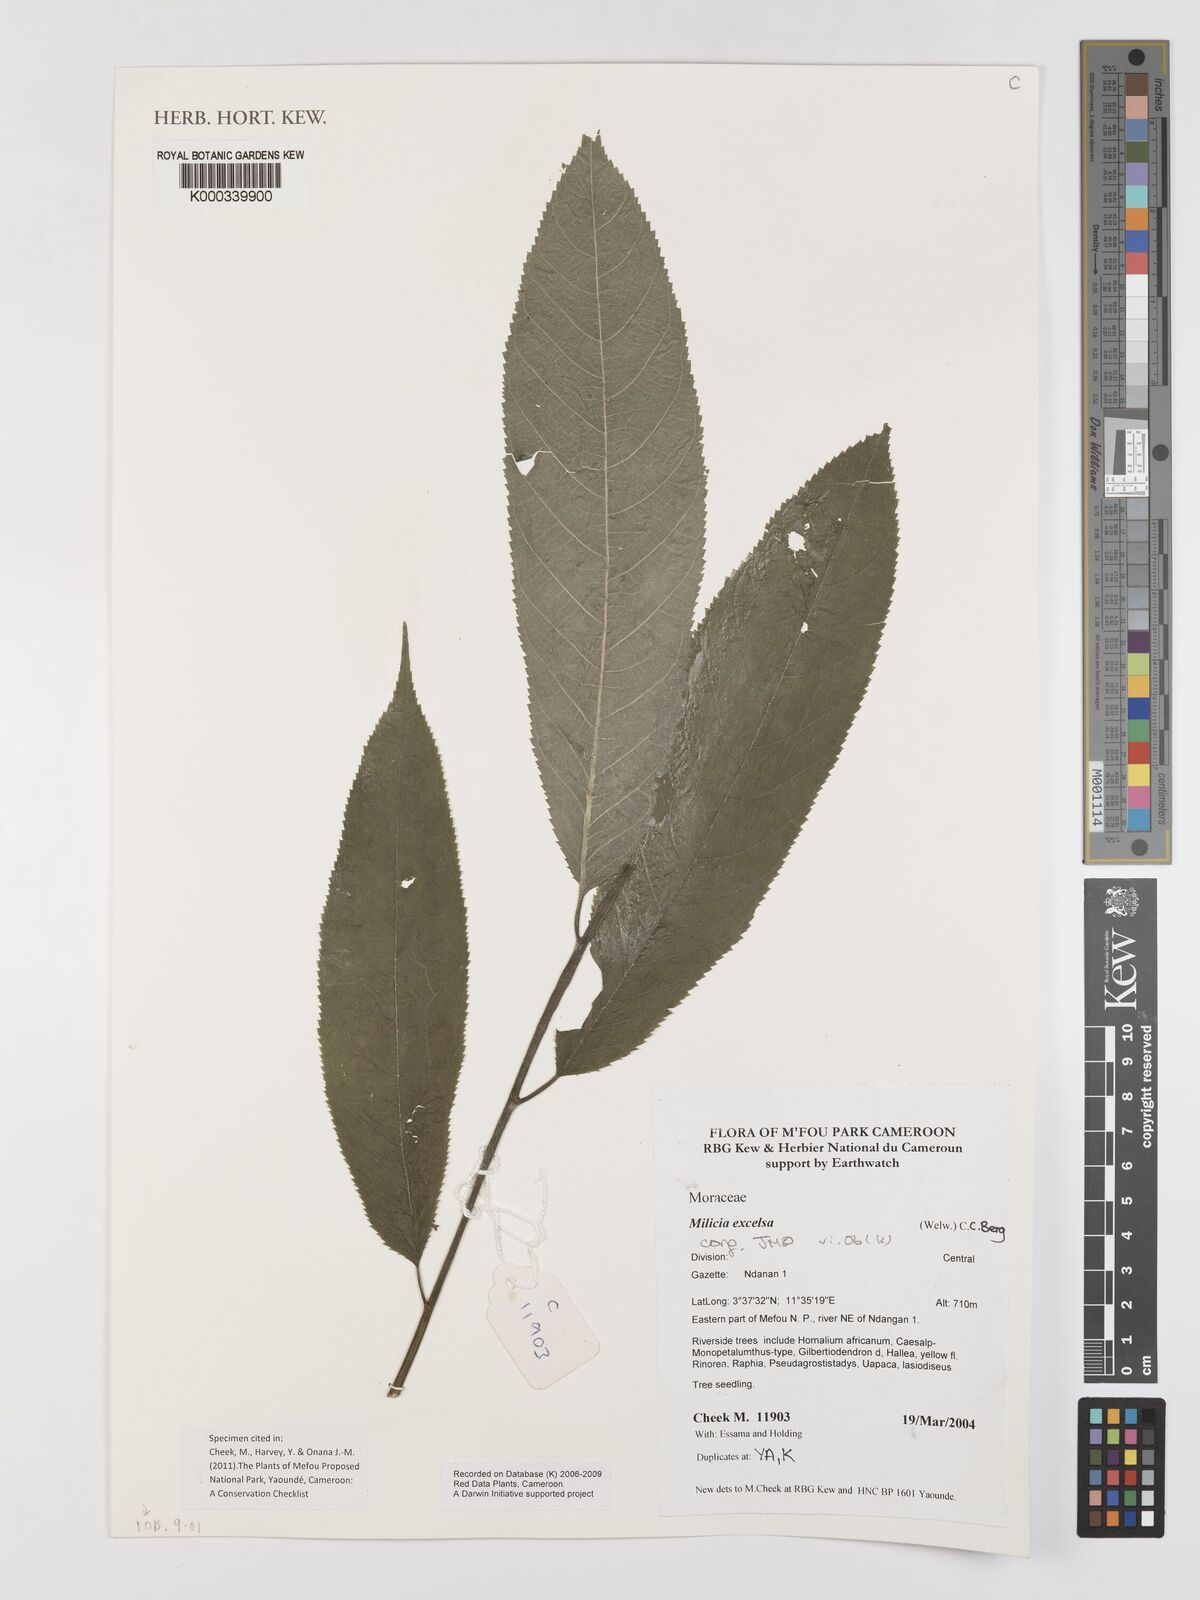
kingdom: Plantae
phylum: Tracheophyta
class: Magnoliopsida
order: Rosales
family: Moraceae
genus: Milicia
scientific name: Milicia excelsa
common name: African teak
